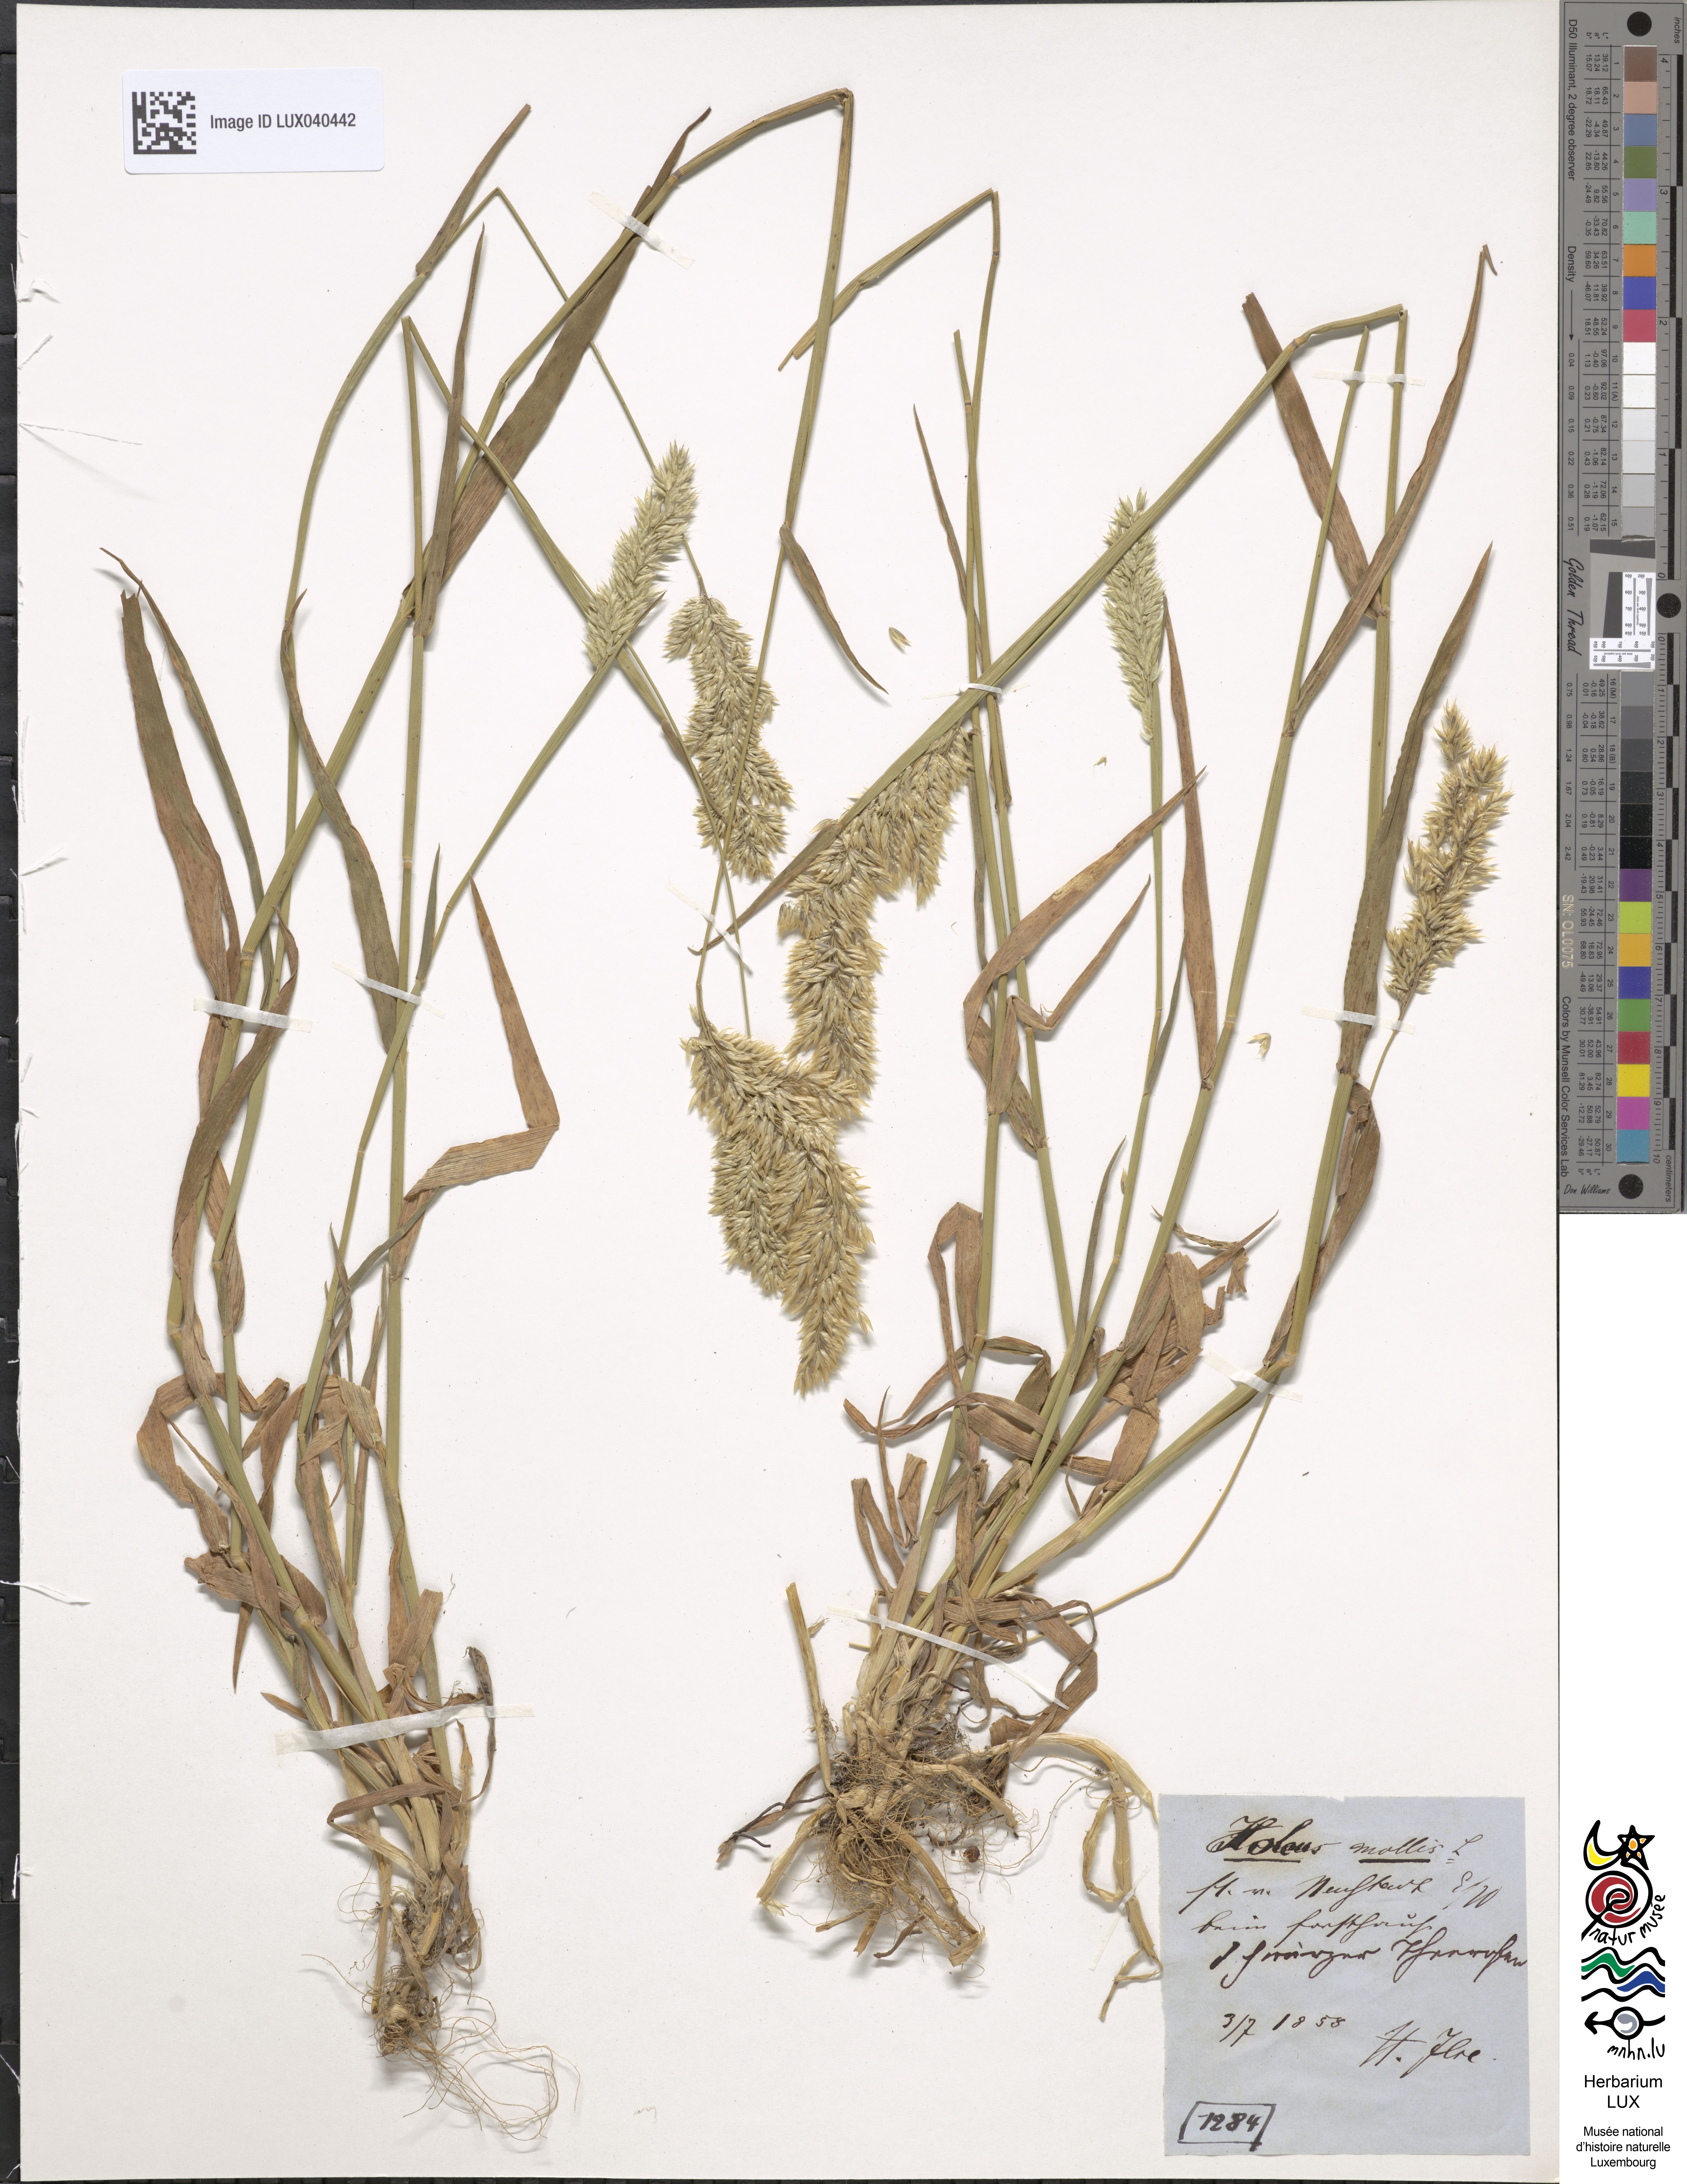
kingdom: Plantae
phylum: Tracheophyta
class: Liliopsida
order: Poales
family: Poaceae
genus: Holcus
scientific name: Holcus mollis
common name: Creeping velvetgrass
